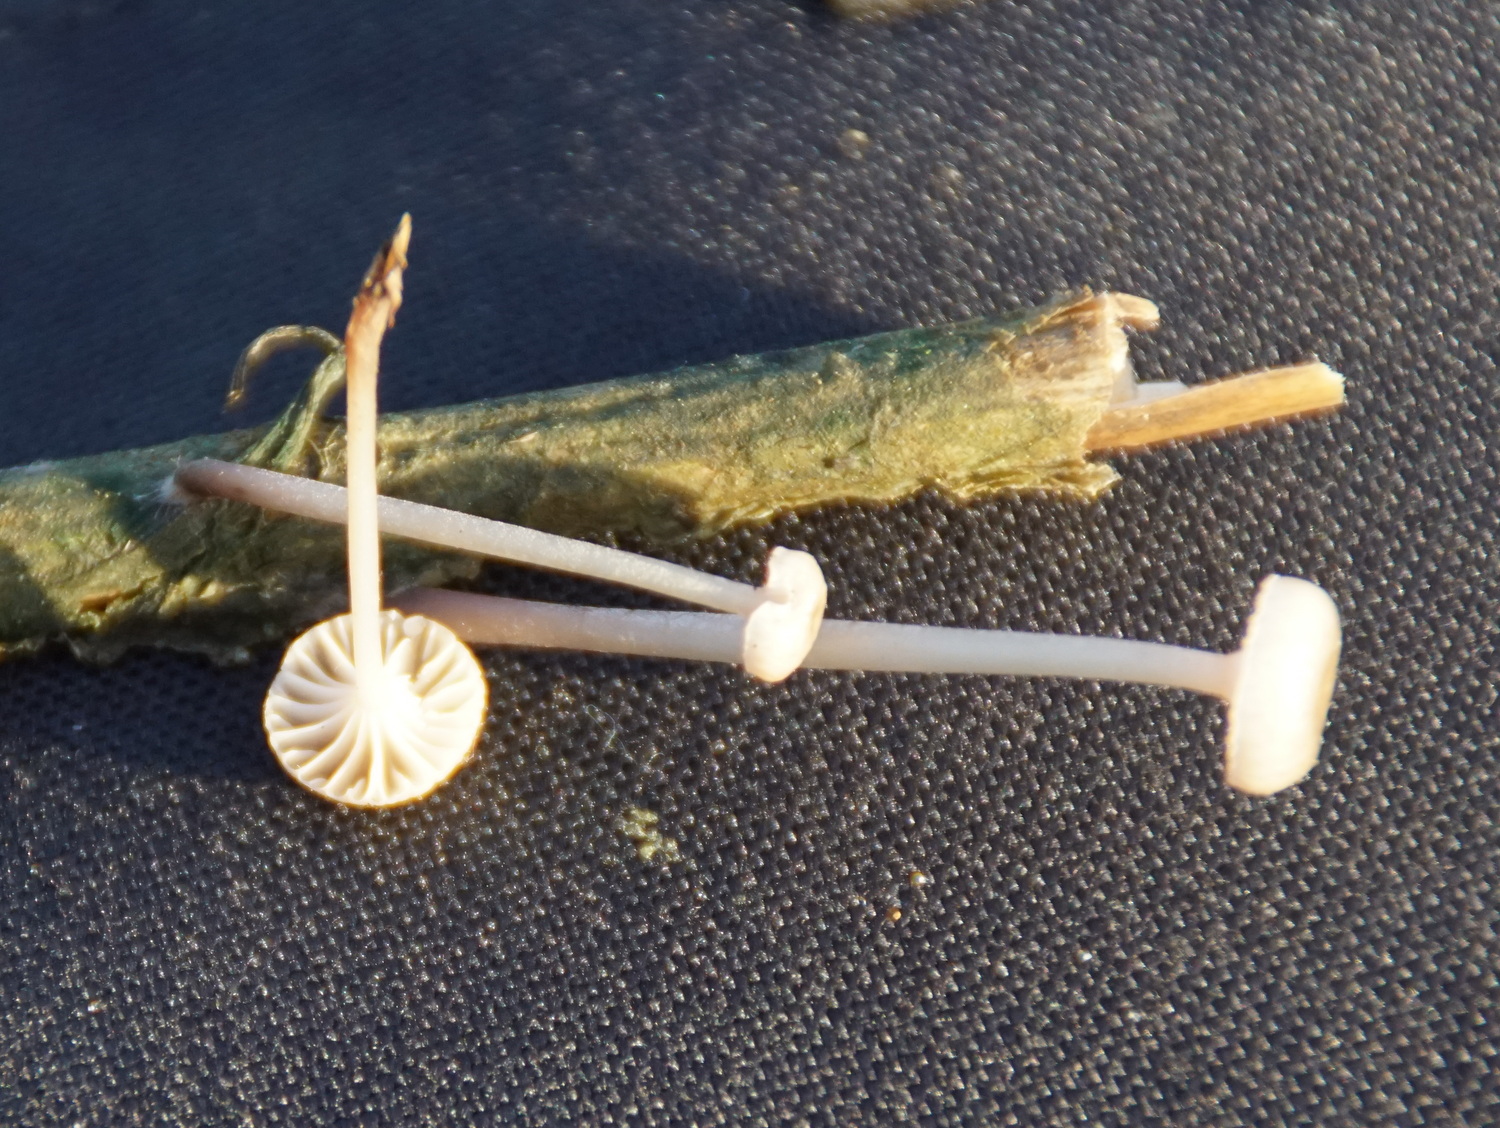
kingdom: Fungi
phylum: Basidiomycota
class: Agaricomycetes
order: Agaricales
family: Mycenaceae
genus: Mycena
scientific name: Mycena belliae
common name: tagrørs-huesvamp
